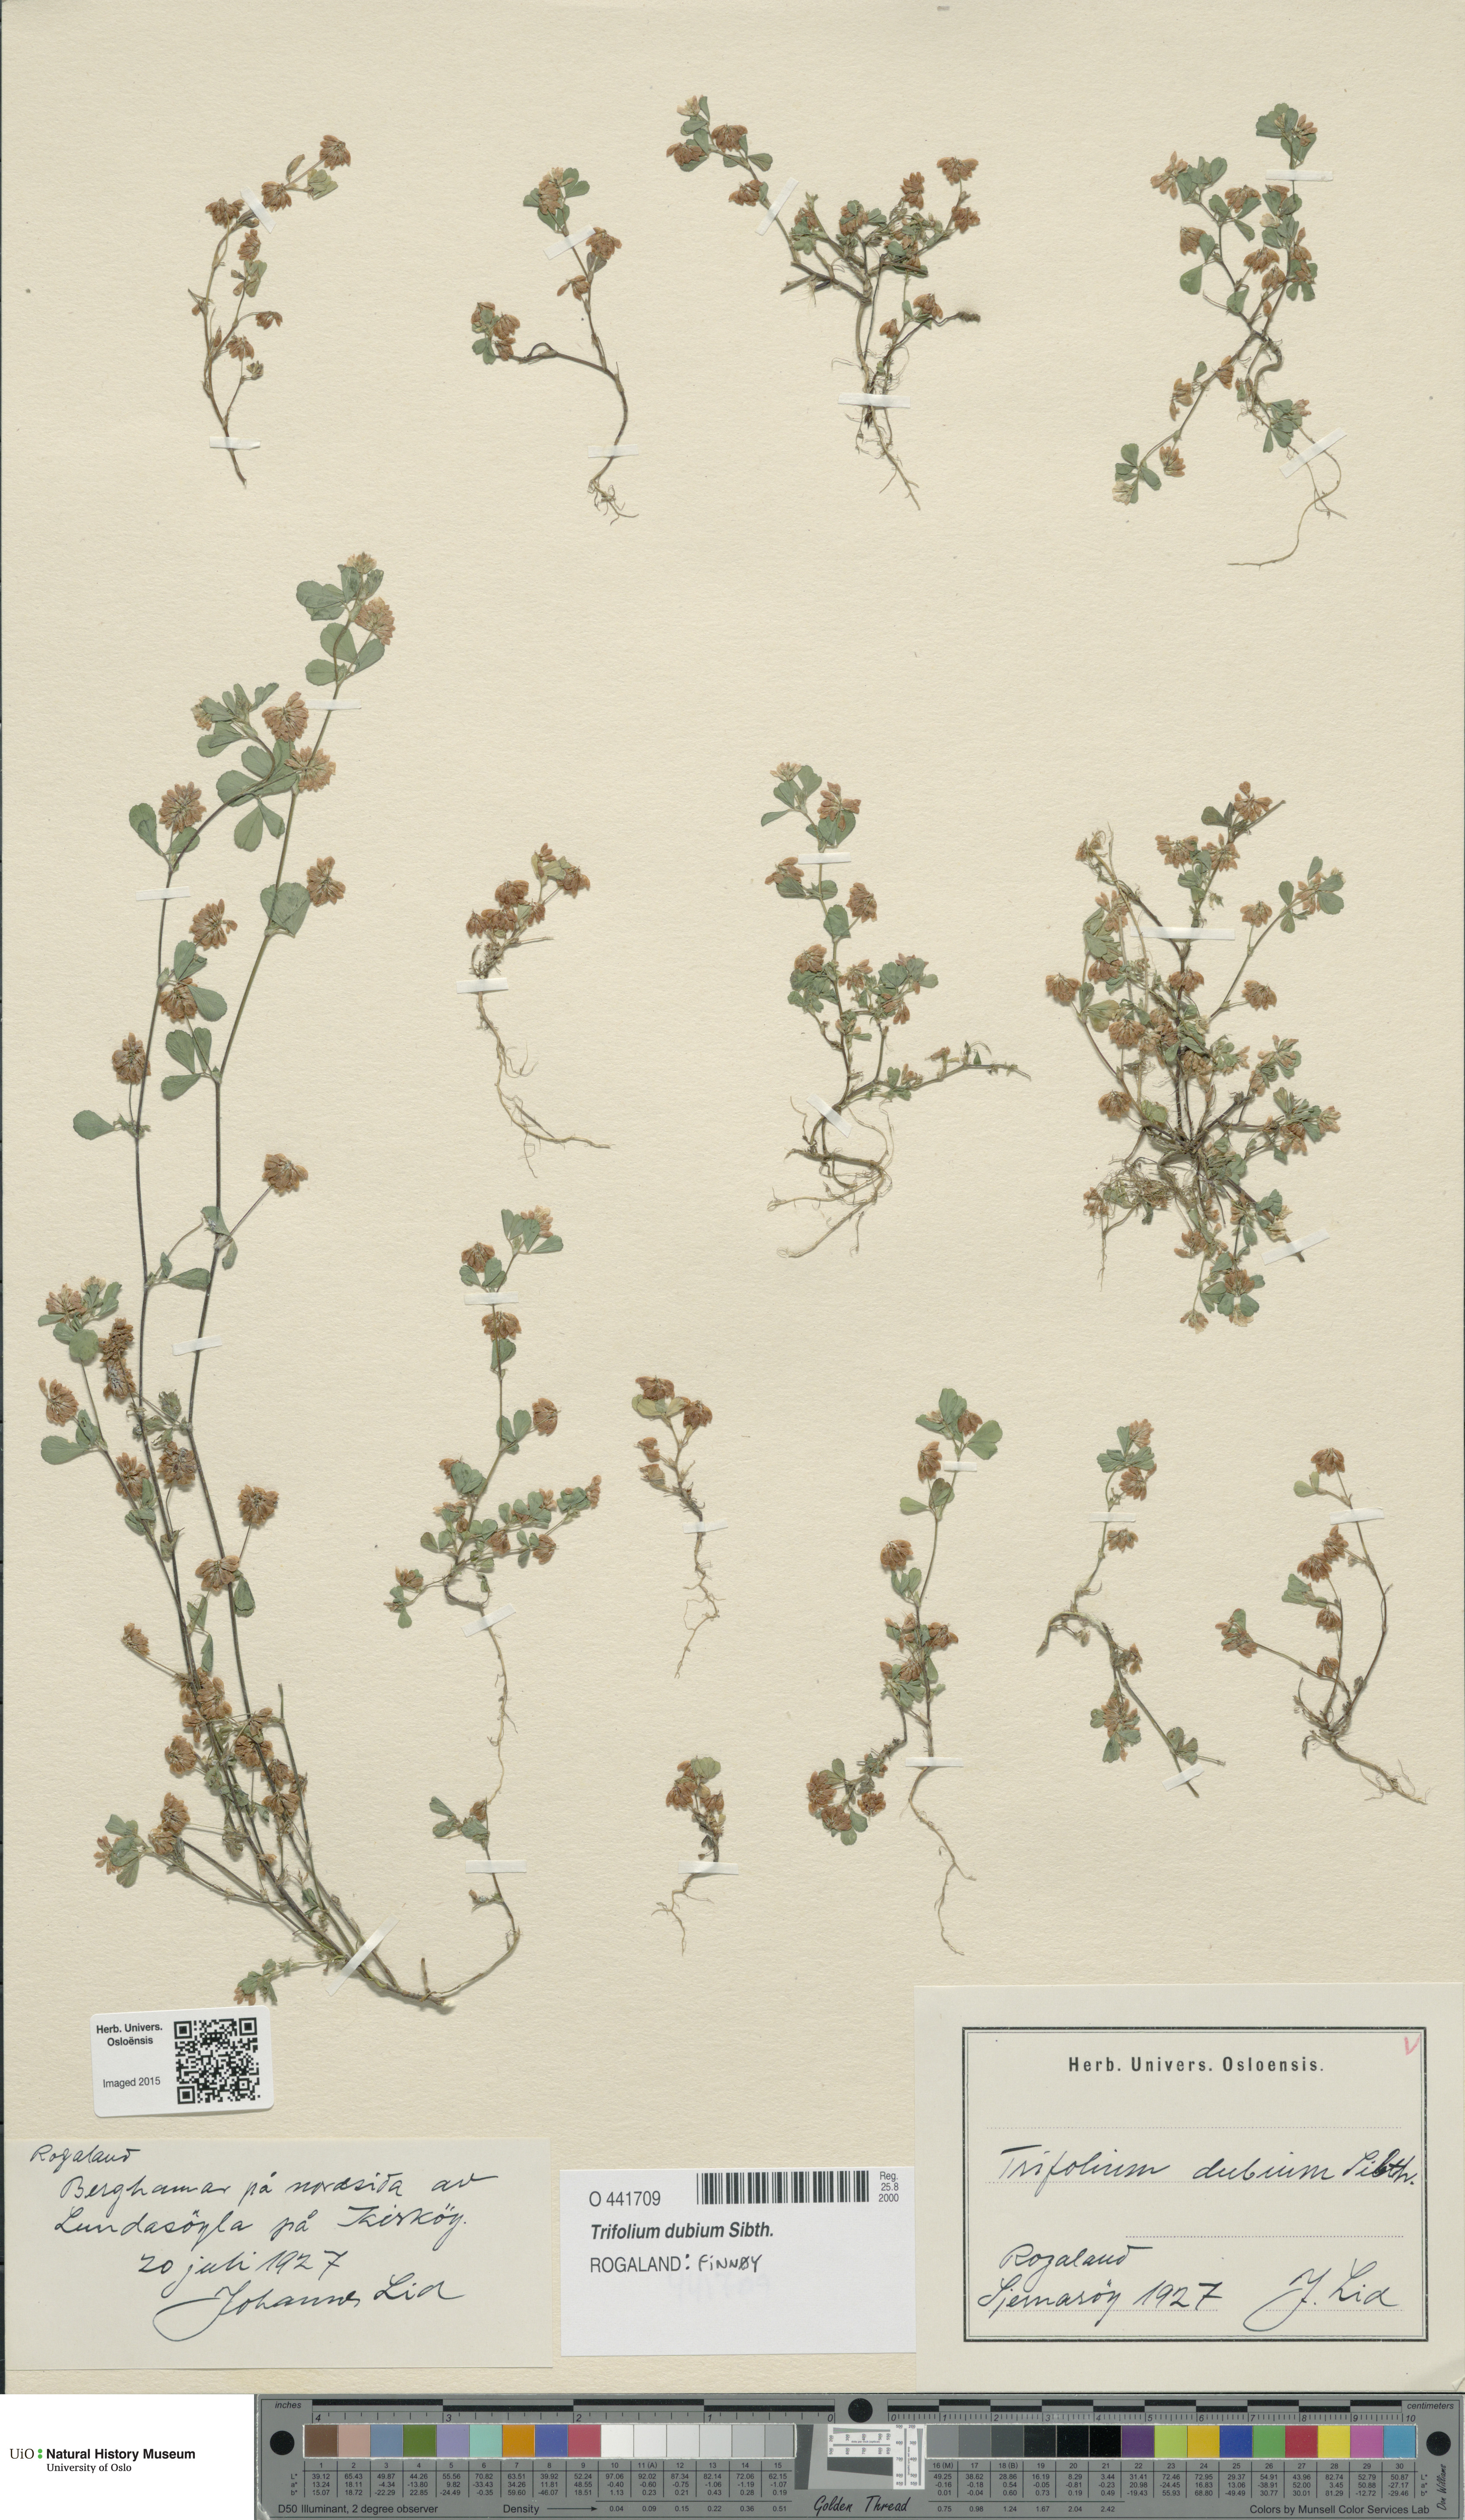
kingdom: Plantae
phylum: Tracheophyta
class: Magnoliopsida
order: Fabales
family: Fabaceae
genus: Trifolium
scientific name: Trifolium dubium
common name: Suckling clover
